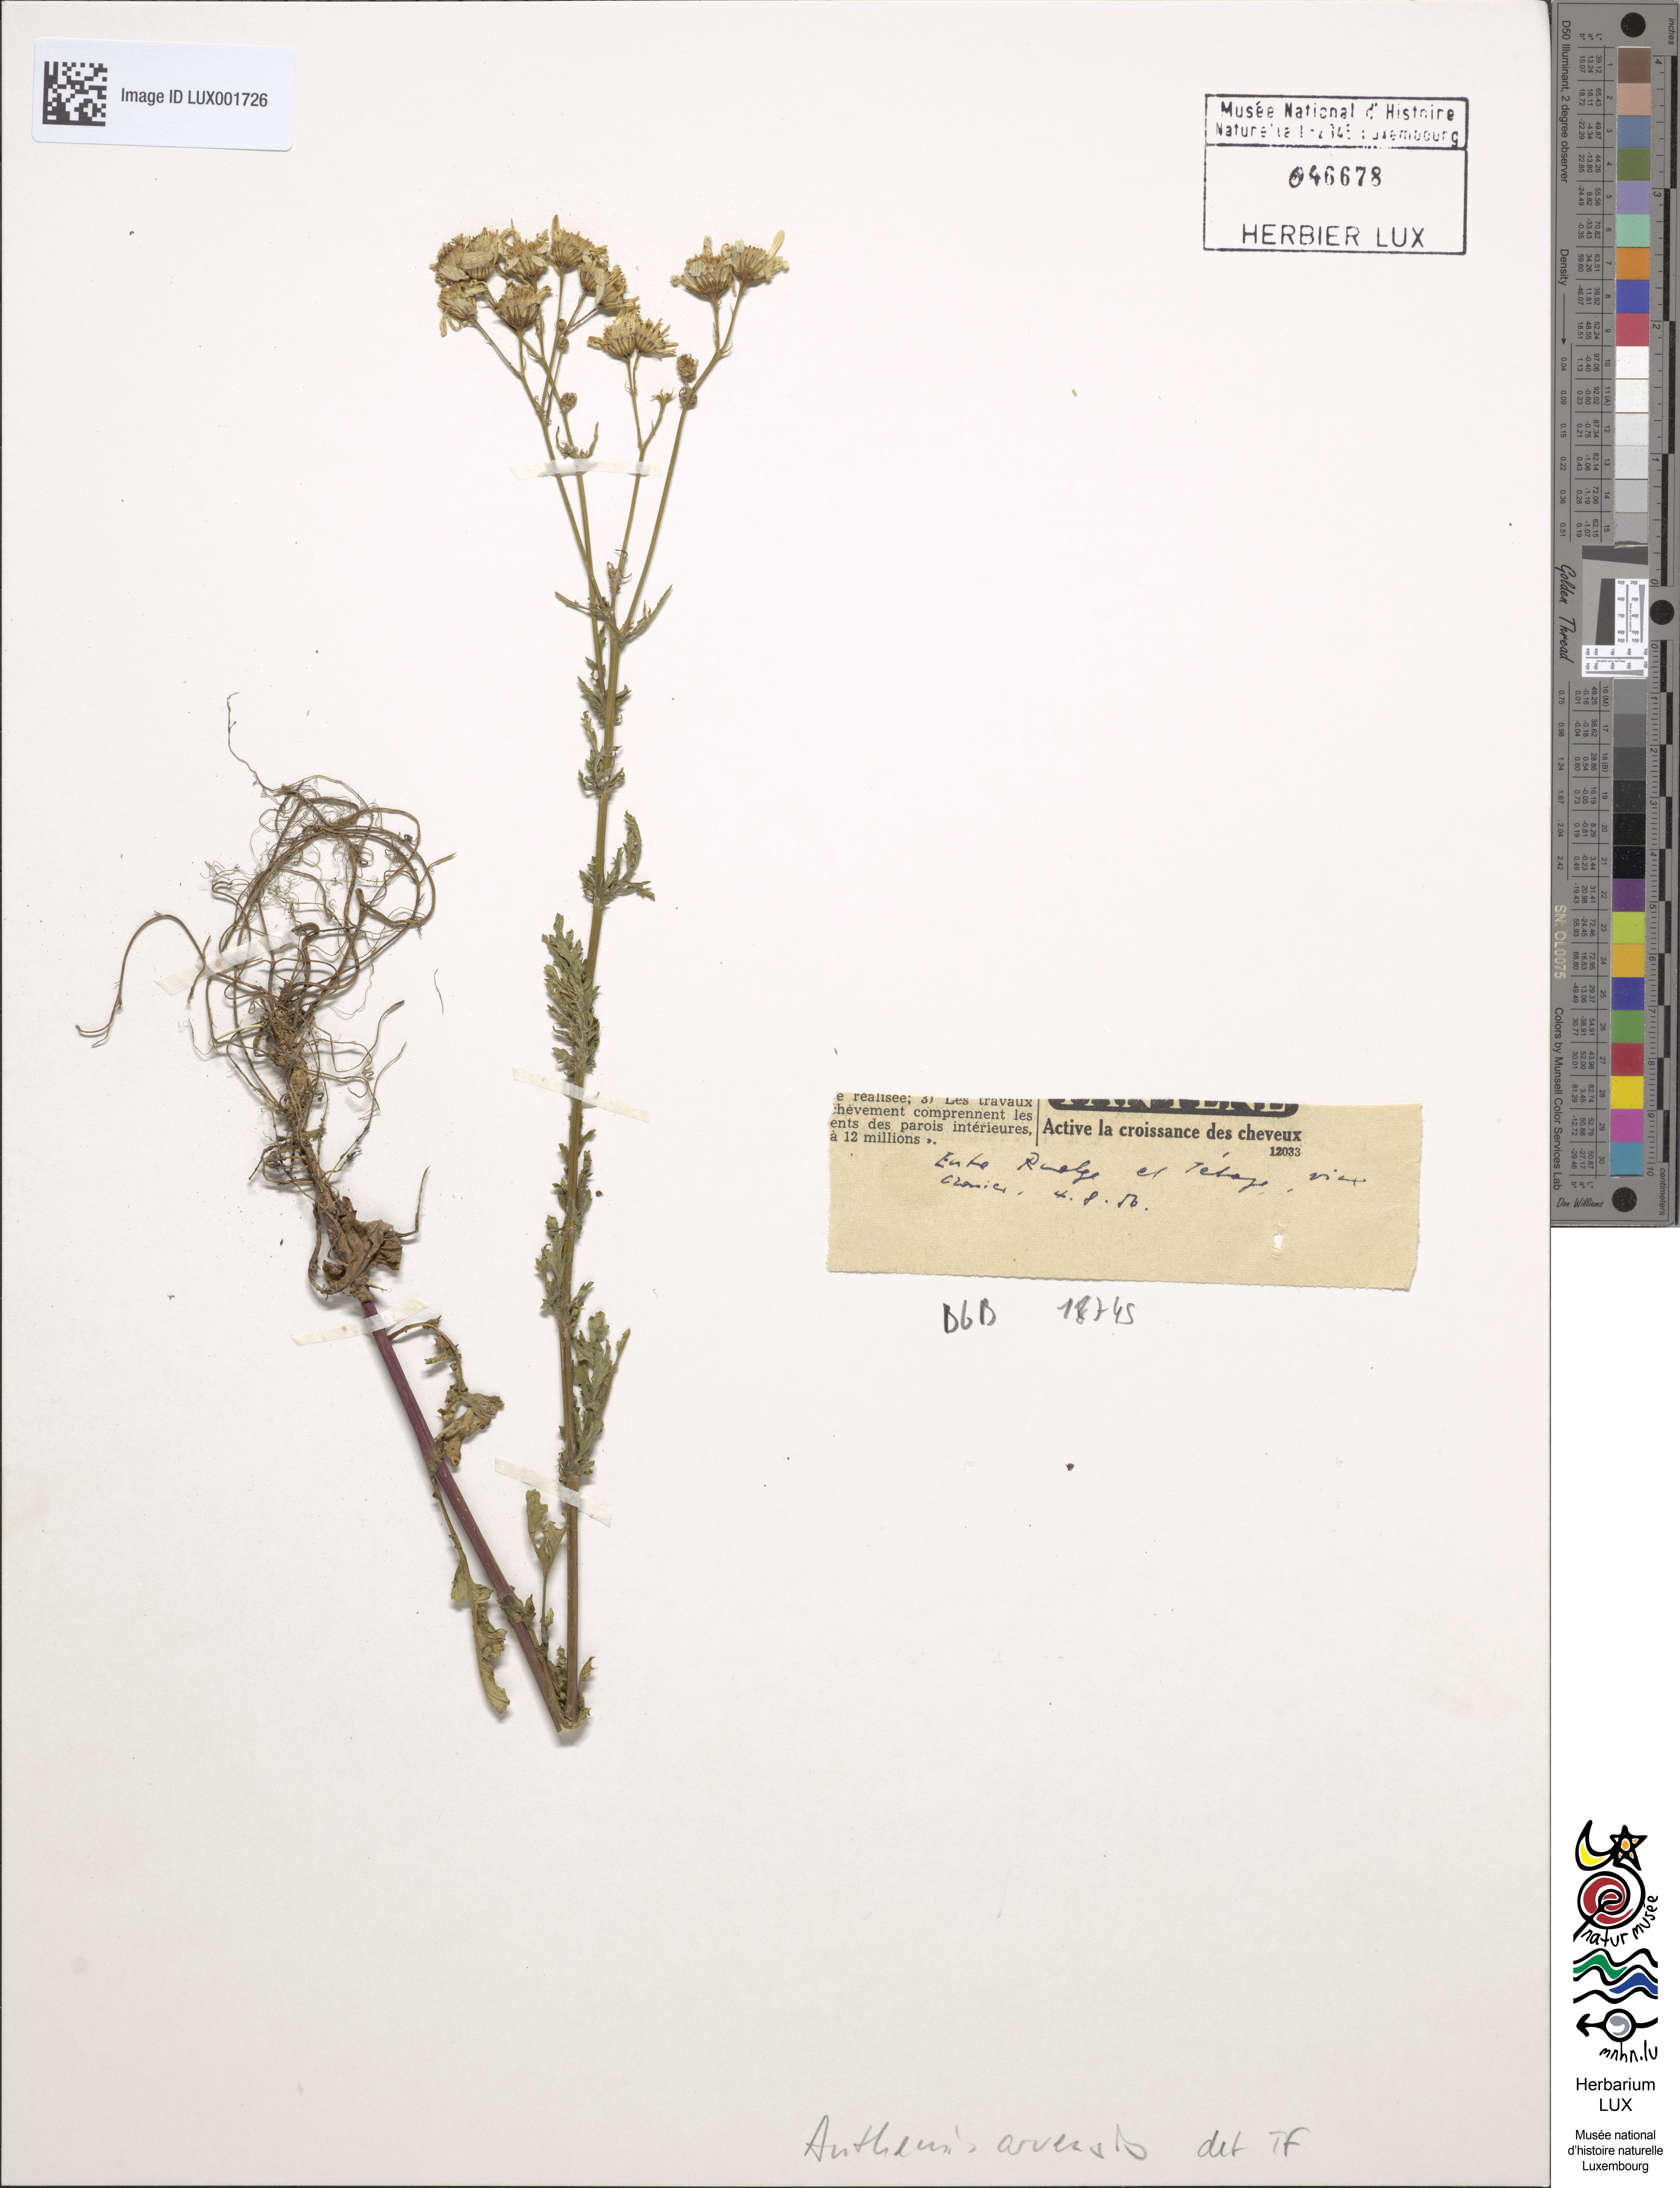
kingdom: Plantae
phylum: Tracheophyta
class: Magnoliopsida
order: Asterales
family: Asteraceae
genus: Anthemis
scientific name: Anthemis arvensis
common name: Corn chamomile
